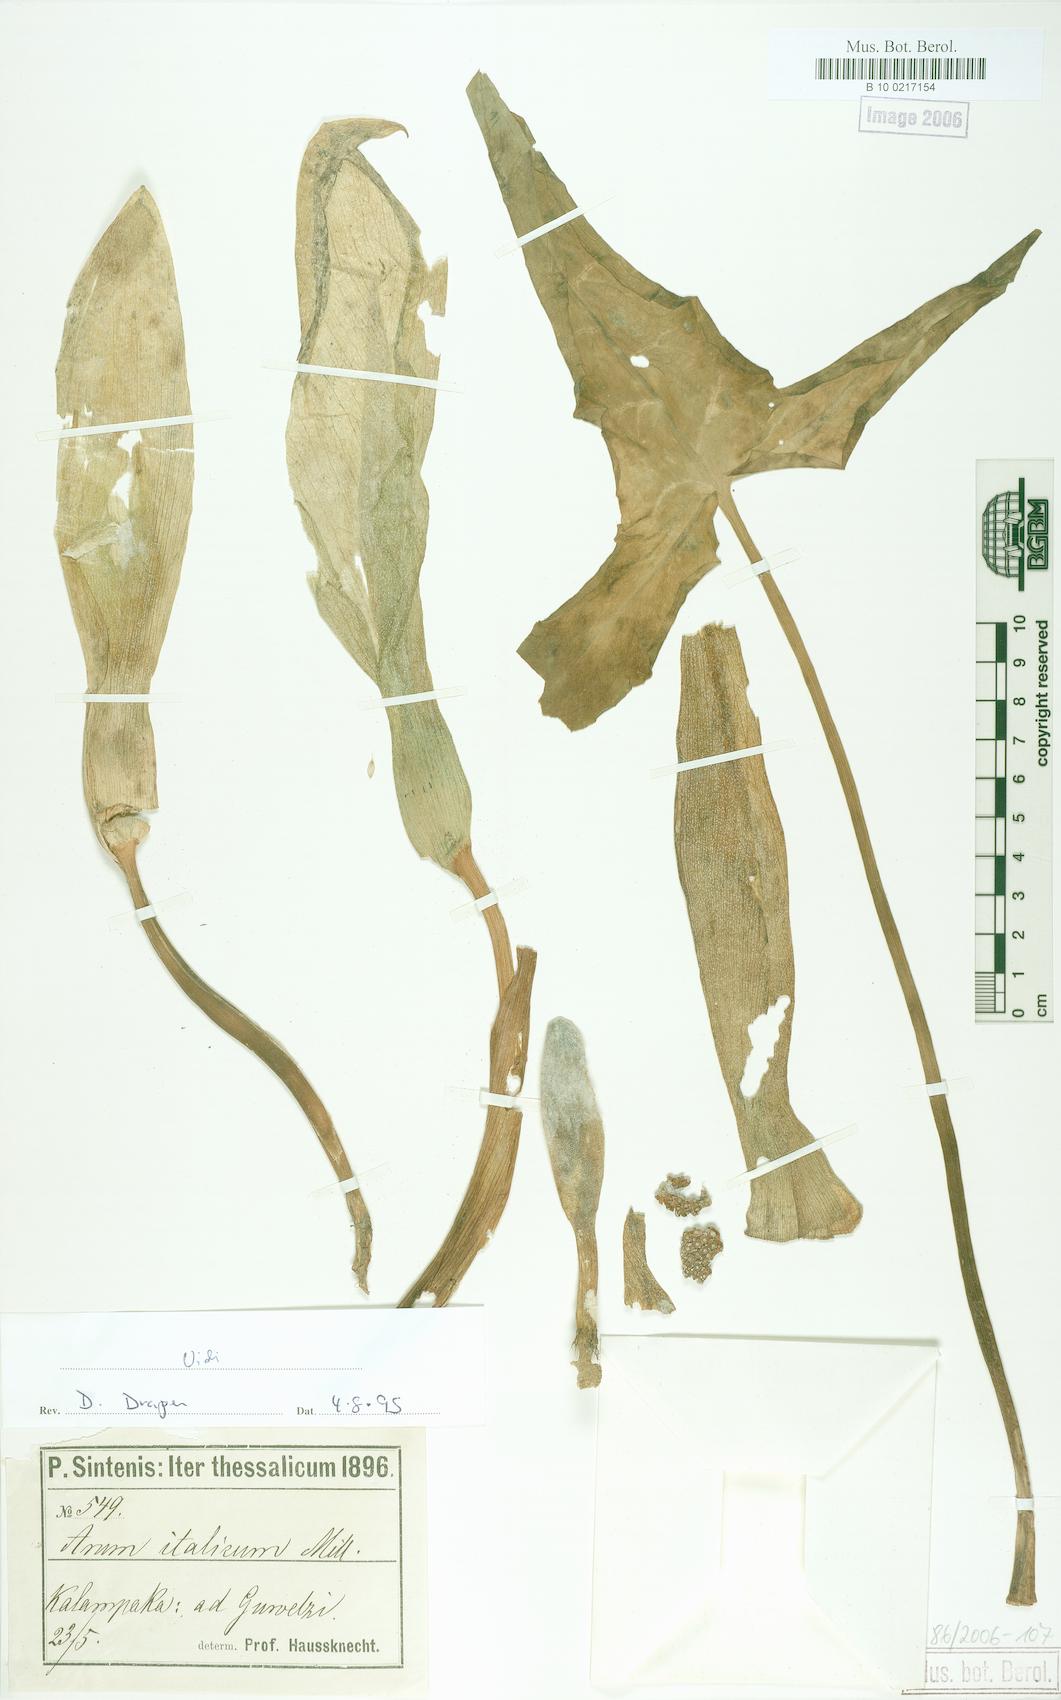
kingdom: Plantae
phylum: Tracheophyta
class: Liliopsida
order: Alismatales
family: Araceae
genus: Arum
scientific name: Arum italicum
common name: Italian lords-and-ladies
